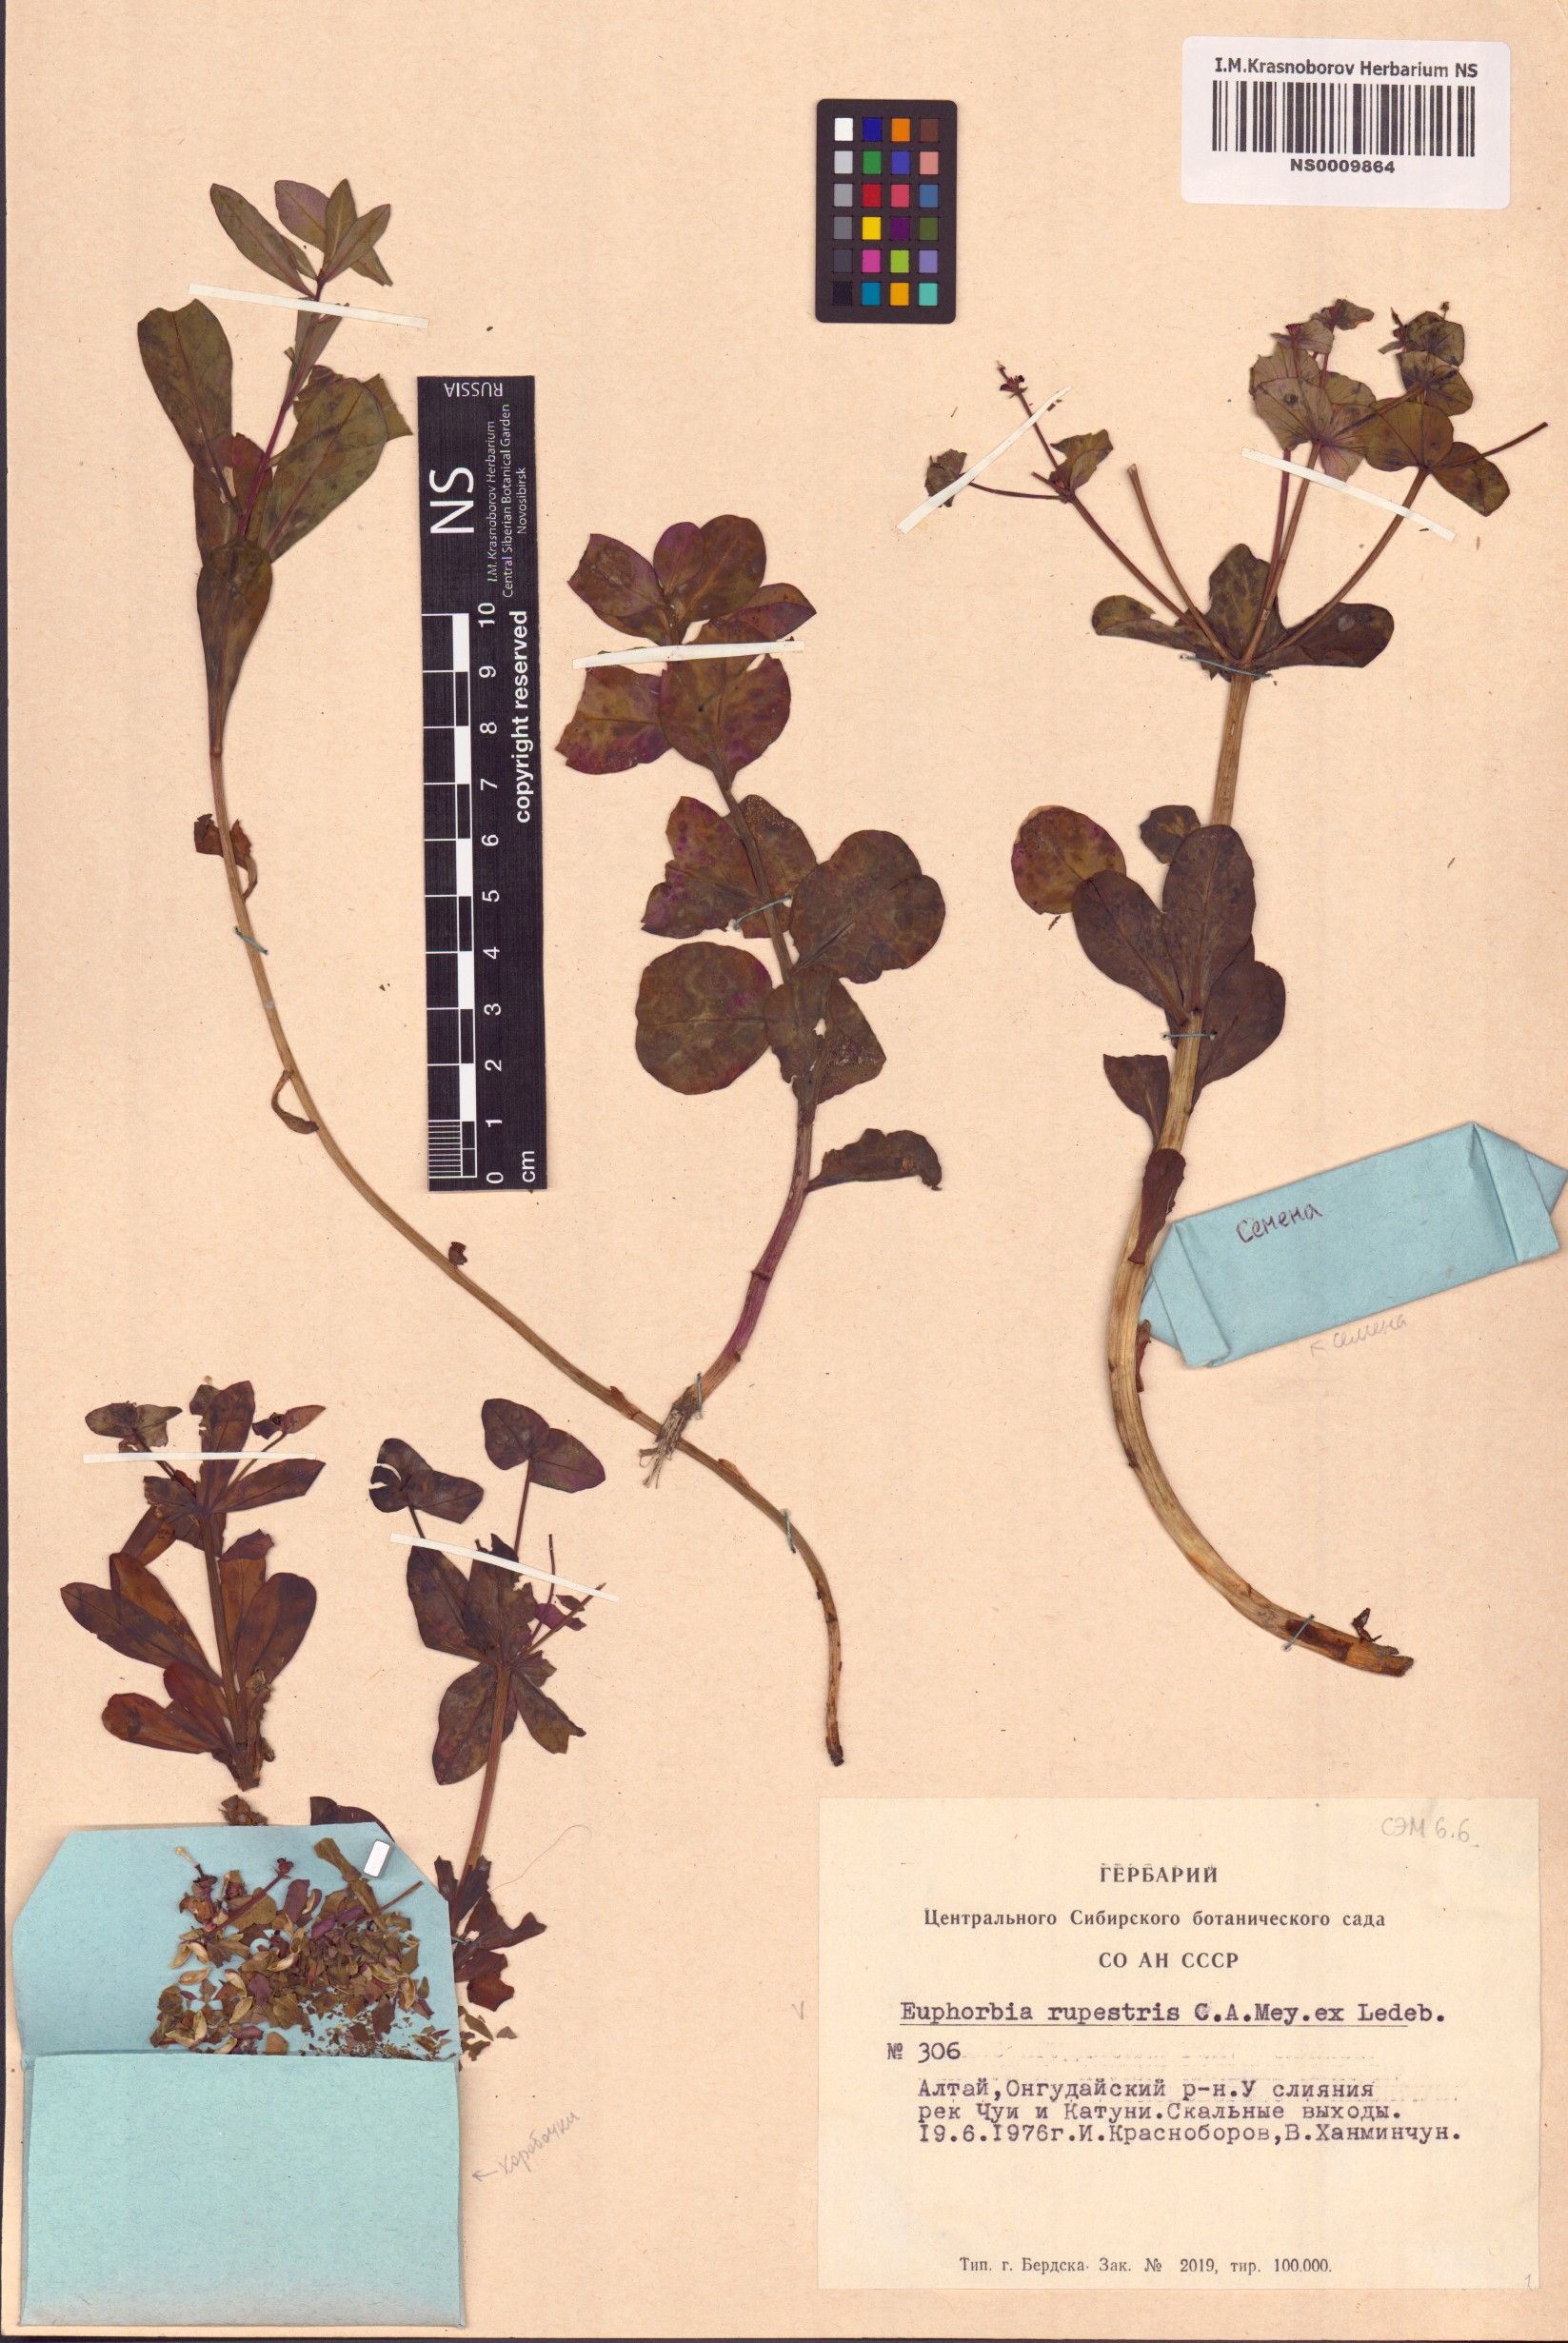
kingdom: Plantae
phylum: Tracheophyta
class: Magnoliopsida
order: Malpighiales
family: Euphorbiaceae
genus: Euphorbia
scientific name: Euphorbia rupestris
